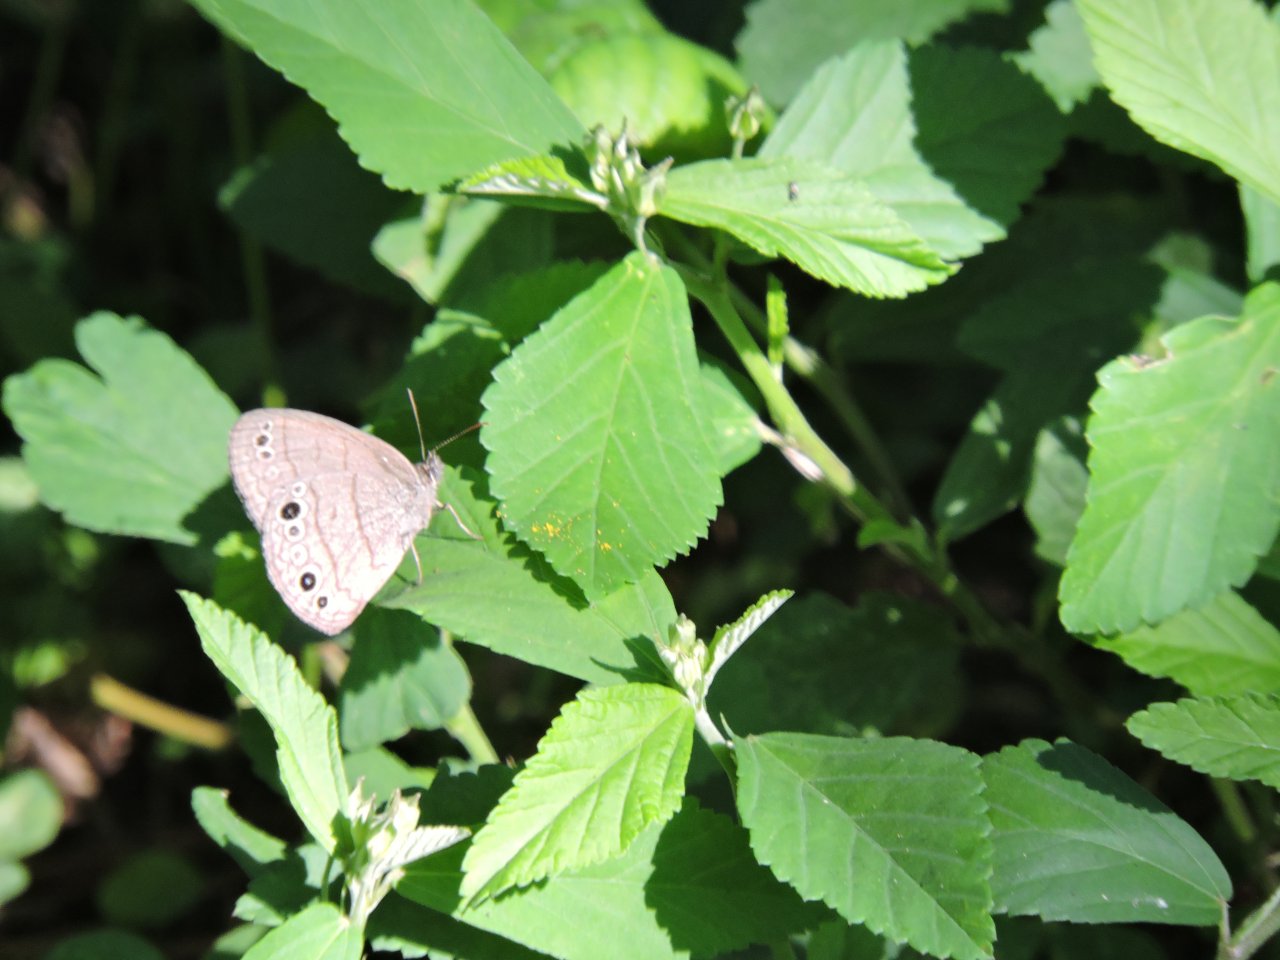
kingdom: Animalia
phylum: Arthropoda
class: Insecta
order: Lepidoptera
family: Nymphalidae
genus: Hermeuptychia
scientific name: Hermeuptychia hermes
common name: Carolina Satyr
